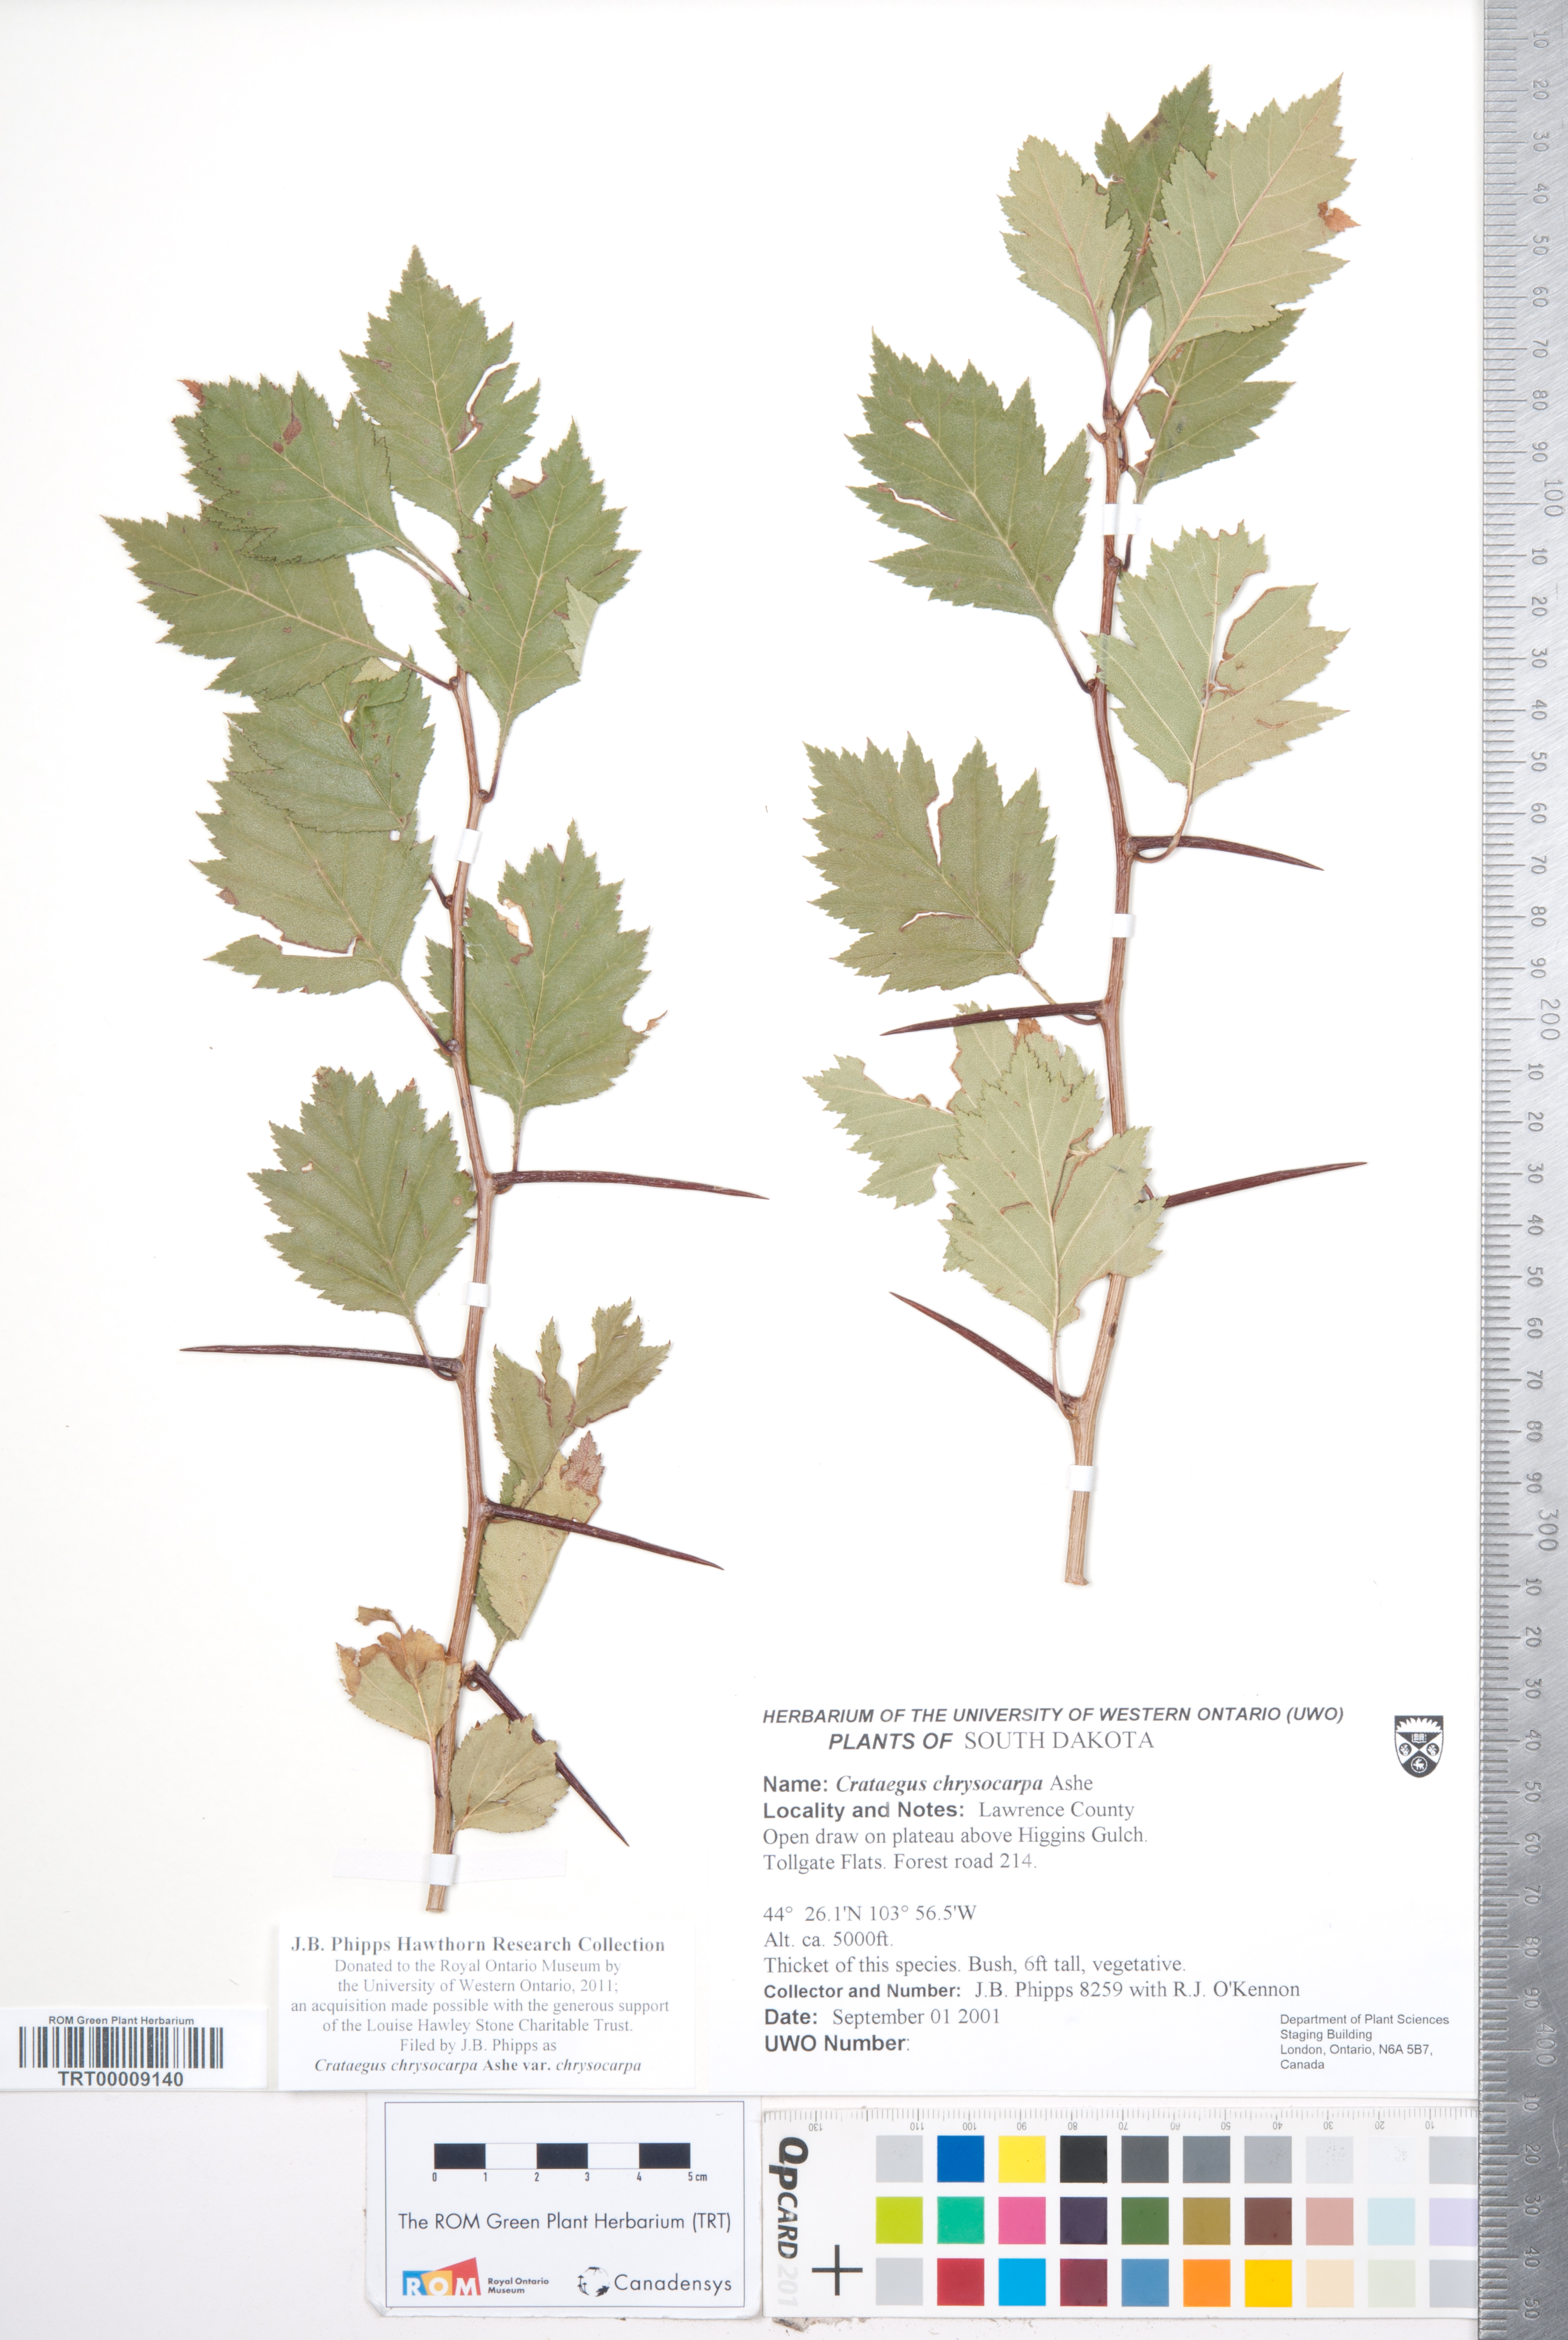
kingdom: Plantae
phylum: Tracheophyta
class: Magnoliopsida
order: Rosales
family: Rosaceae
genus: Crataegus
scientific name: Crataegus chrysocarpa
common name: Fire-berry hawthorn
